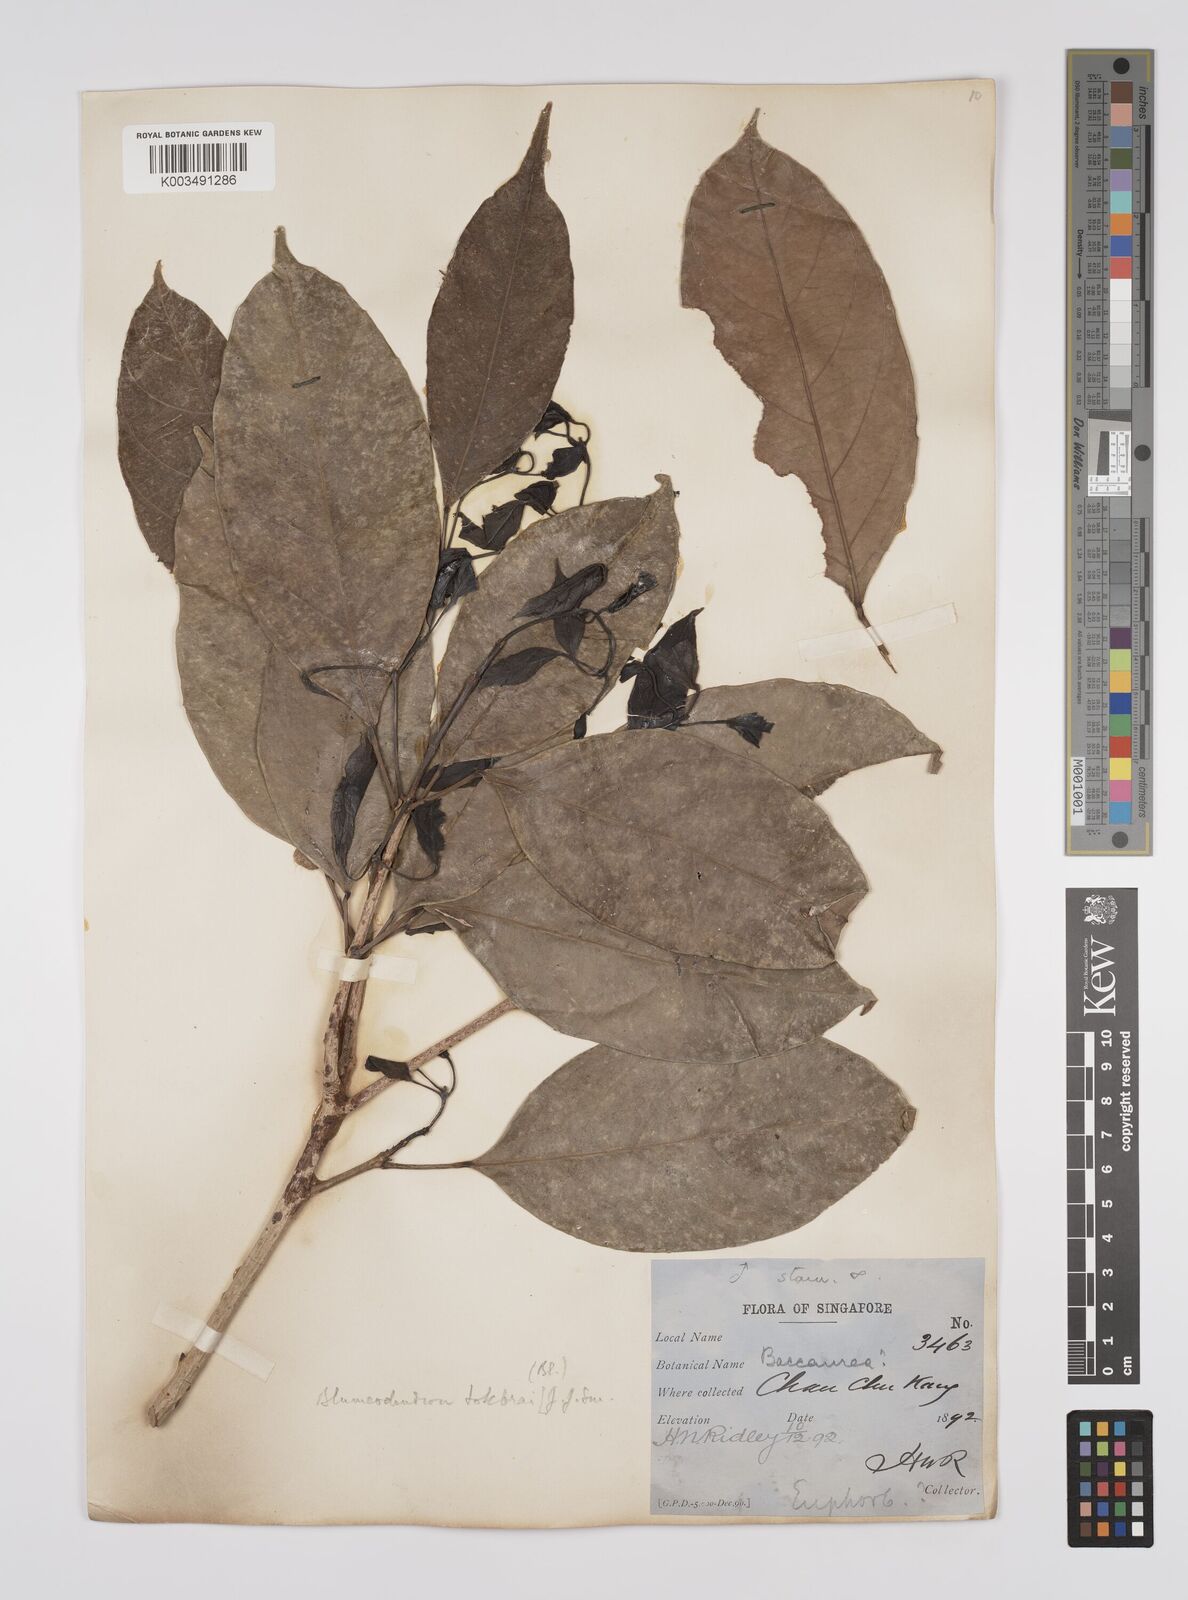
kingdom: Plantae
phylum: Tracheophyta
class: Magnoliopsida
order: Malpighiales
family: Euphorbiaceae
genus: Blumeodendron
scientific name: Blumeodendron tokbrai
